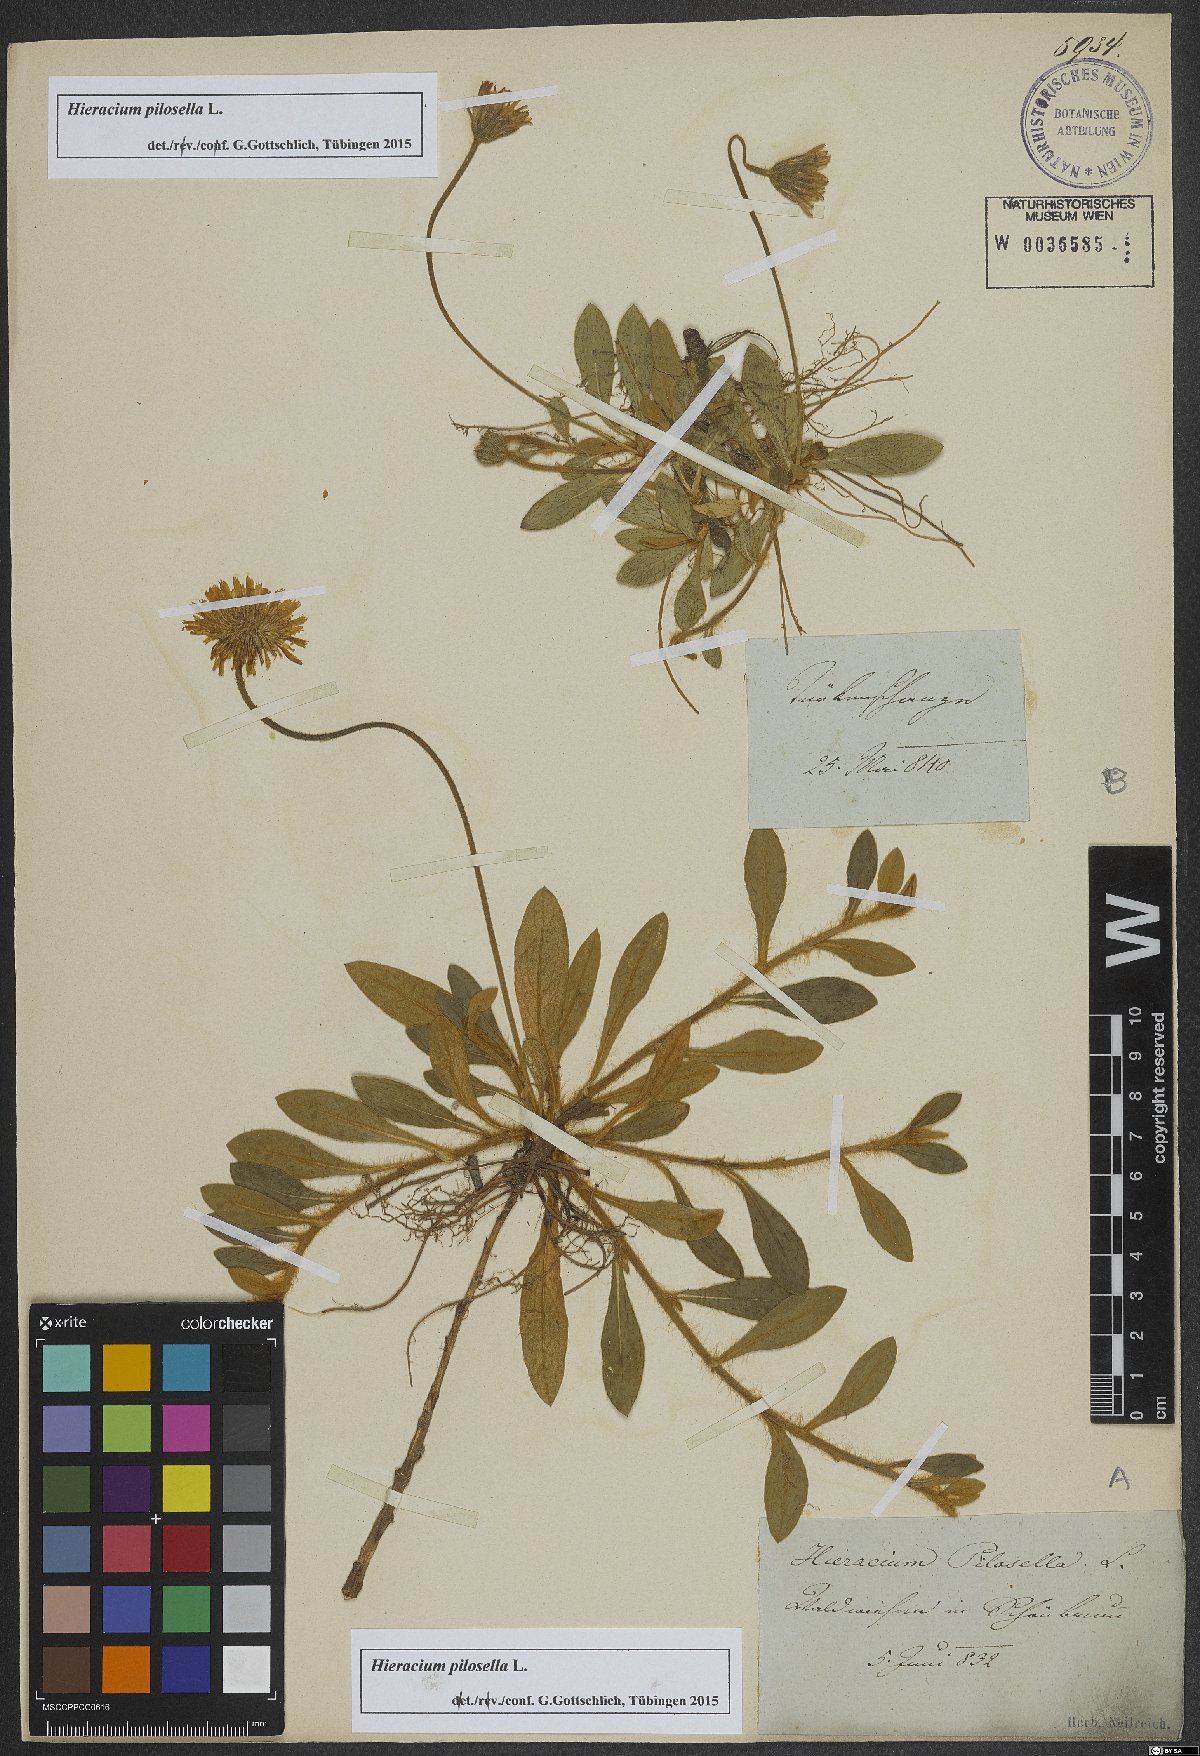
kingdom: Plantae
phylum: Tracheophyta
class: Magnoliopsida
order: Asterales
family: Asteraceae
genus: Pilosella
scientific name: Pilosella officinarum
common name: Mouse-ear hawkweed
